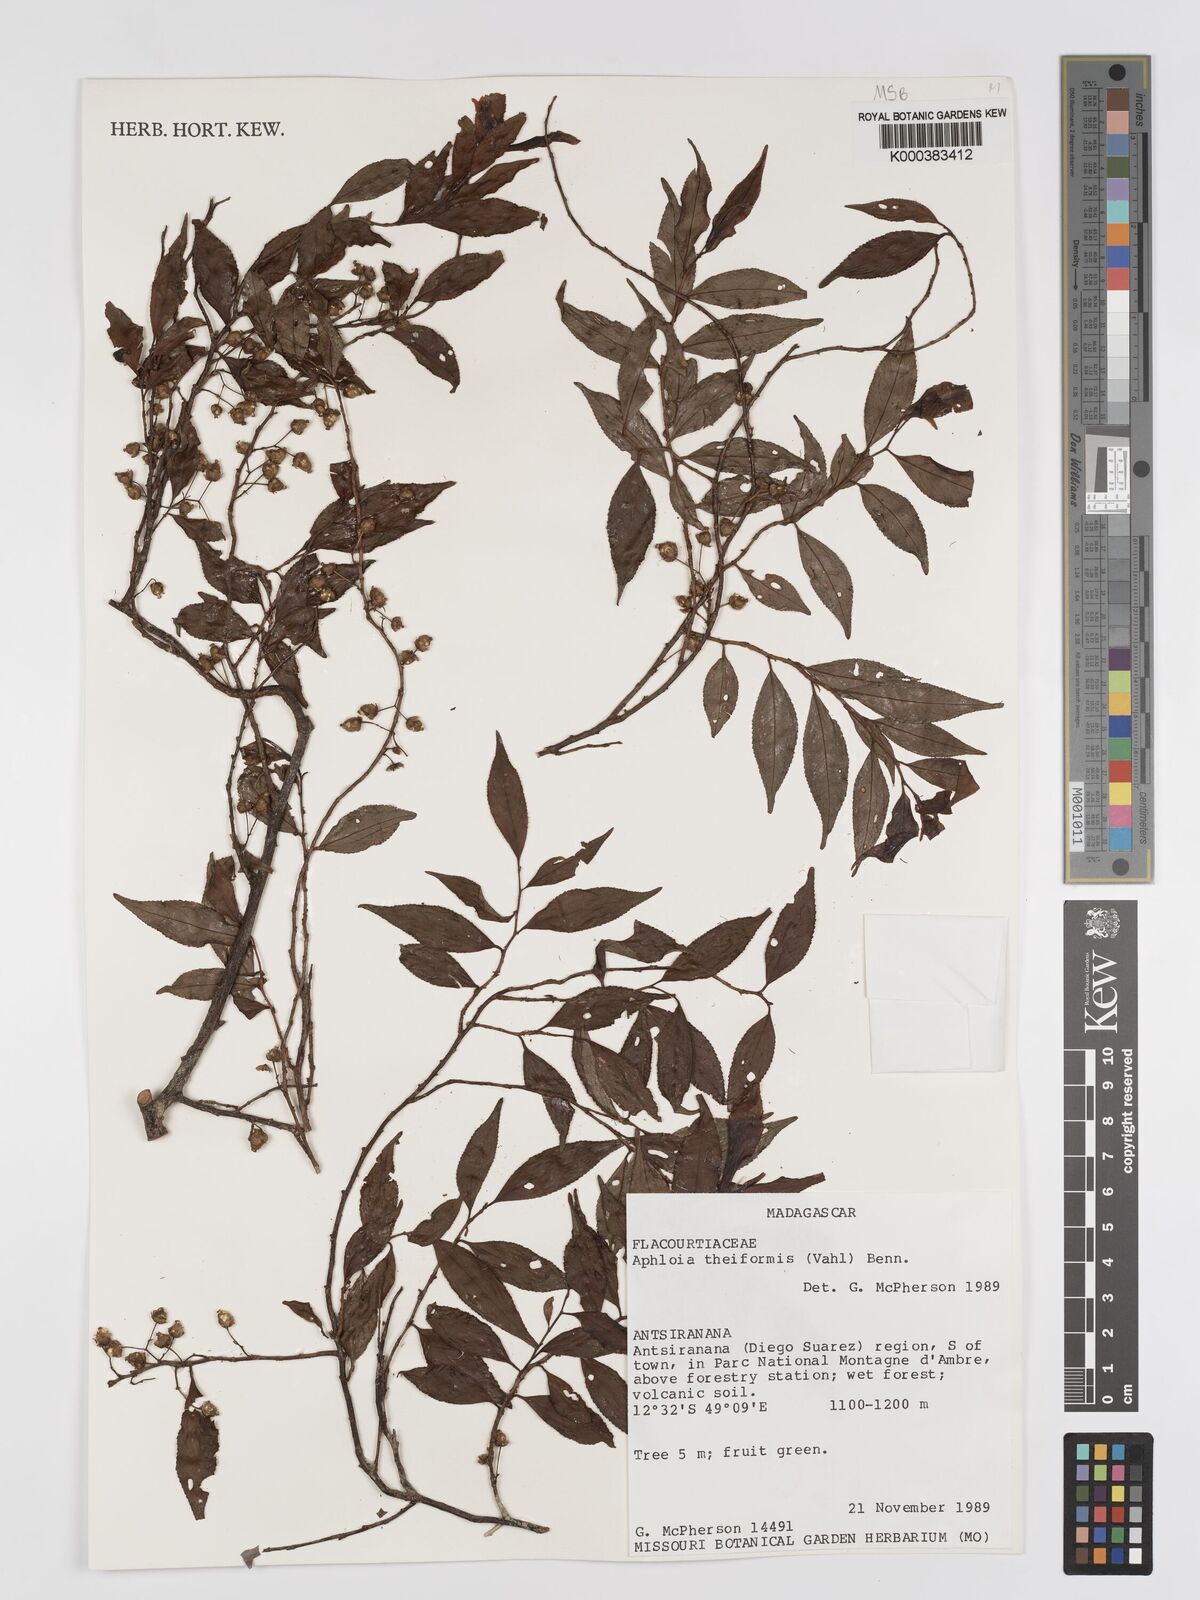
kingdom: Plantae
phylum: Tracheophyta
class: Magnoliopsida
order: Crossosomatales
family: Aphloiaceae
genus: Aphloia
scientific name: Aphloia theiformis
